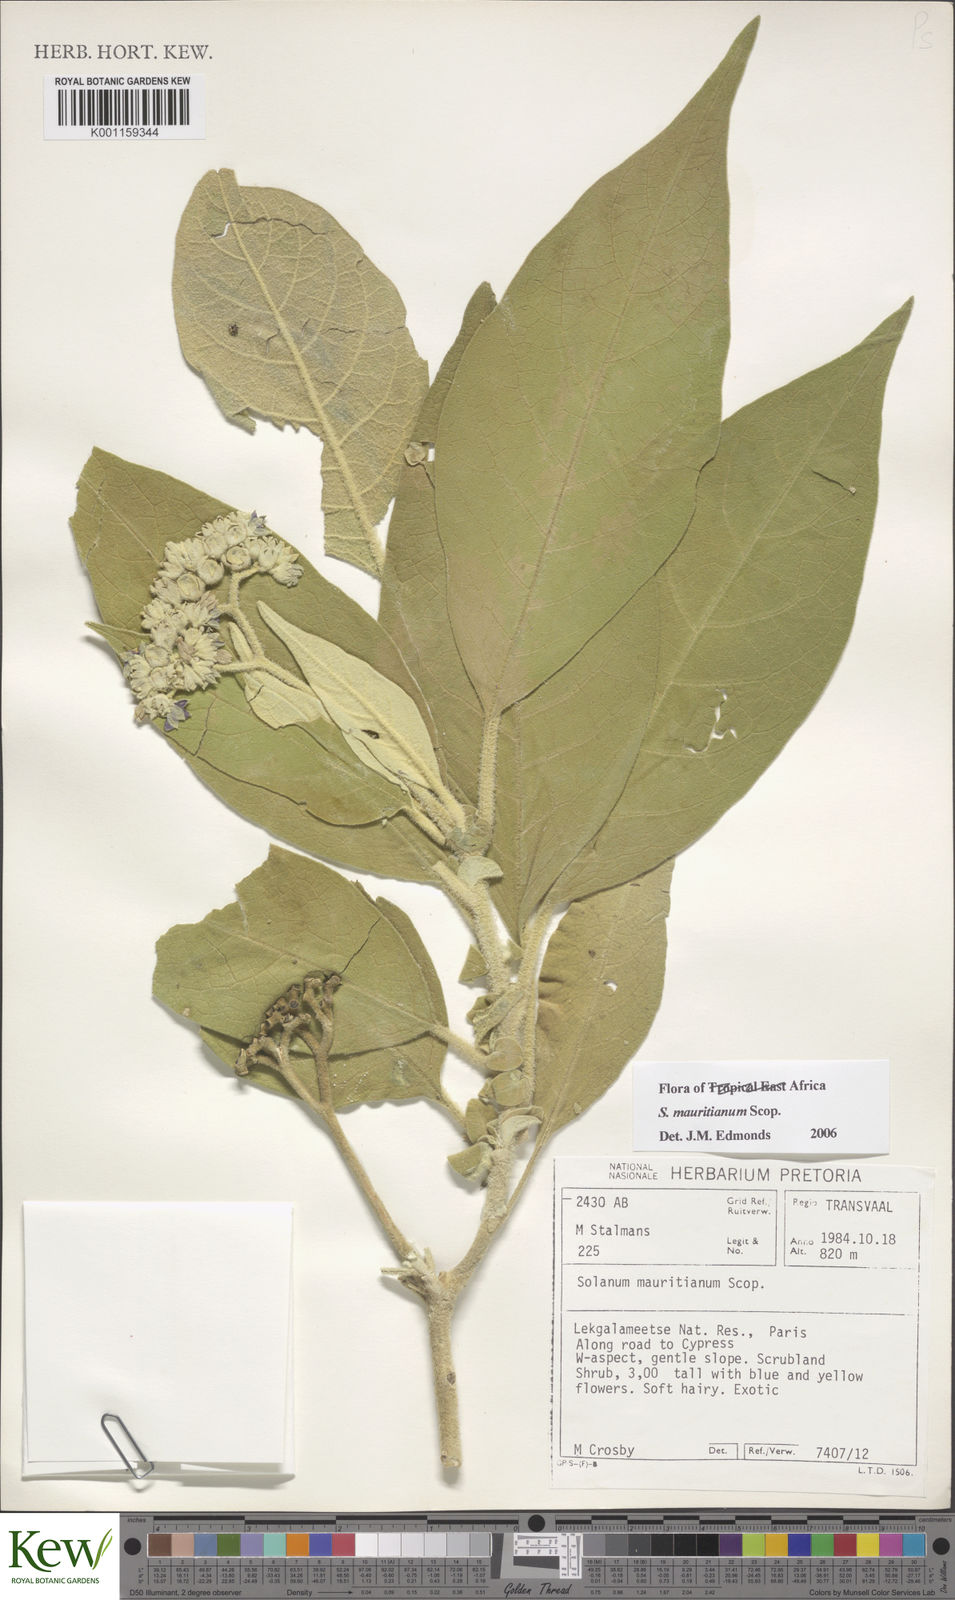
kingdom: Plantae
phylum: Tracheophyta
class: Magnoliopsida
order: Solanales
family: Solanaceae
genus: Solanum
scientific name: Solanum mauritianum
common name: Earleaf nightshade
